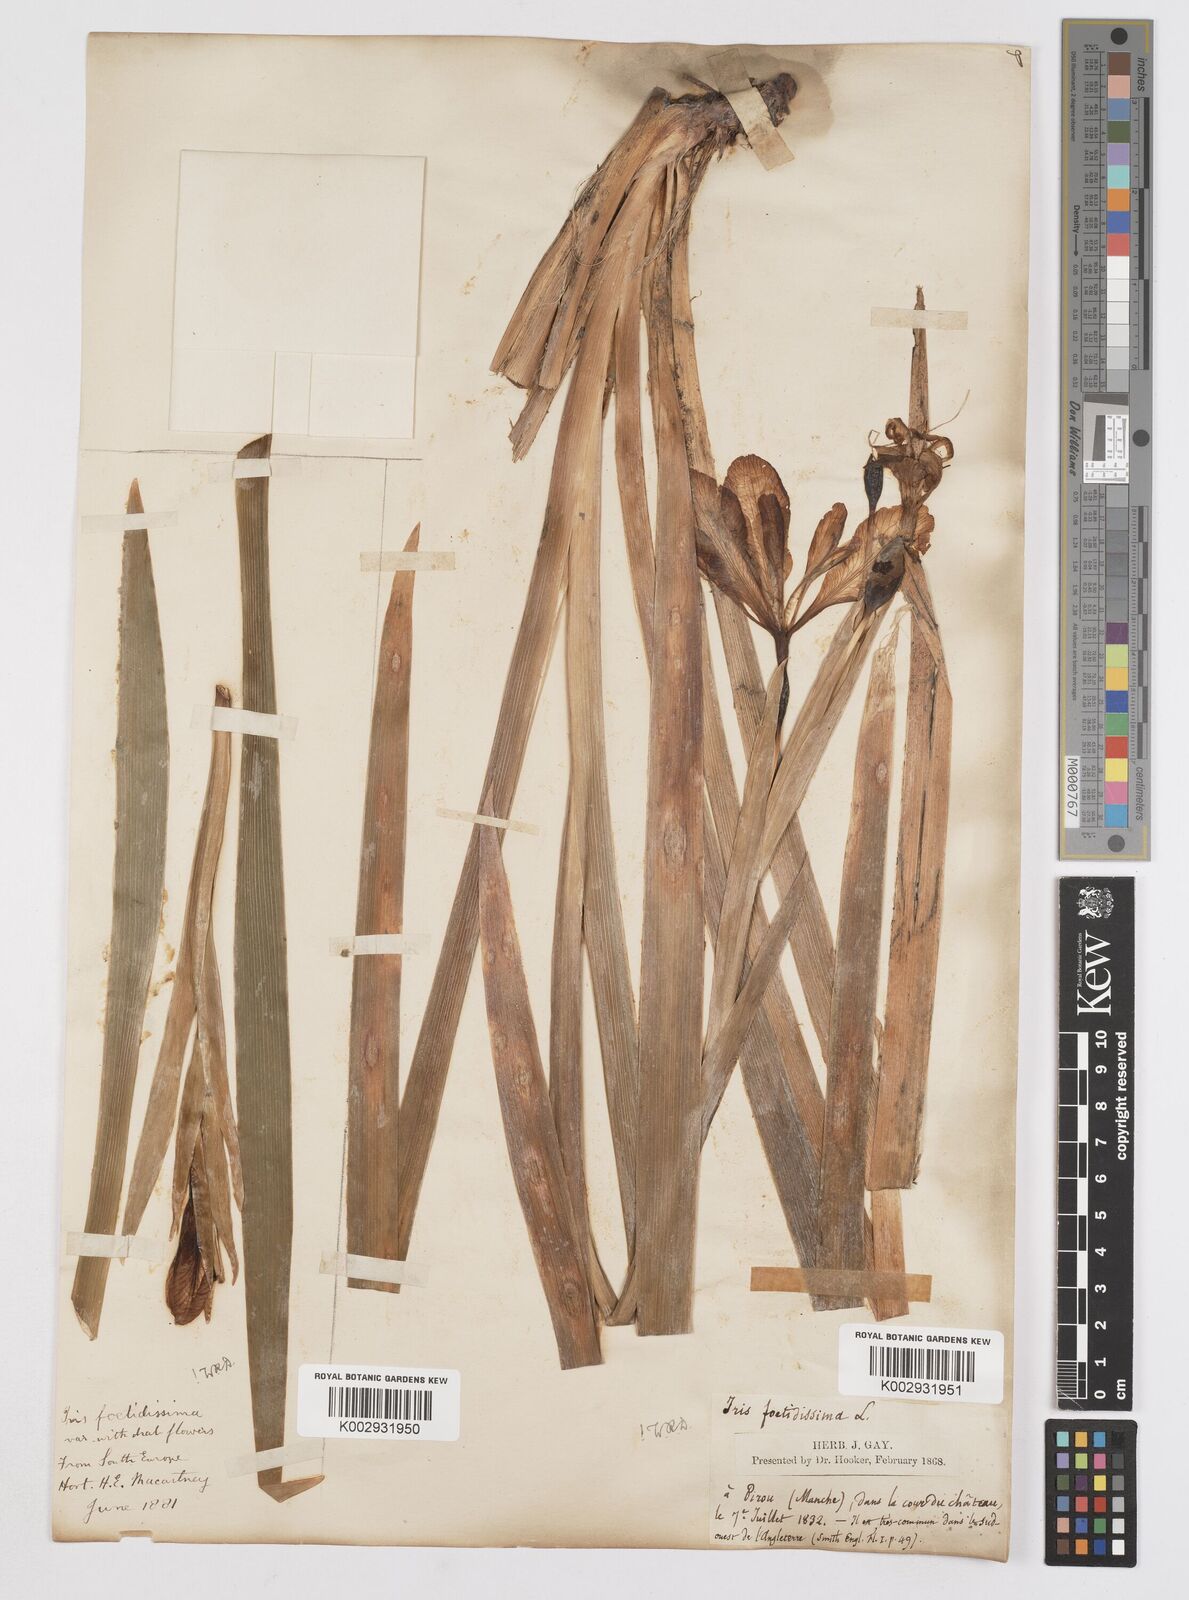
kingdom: Plantae
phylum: Tracheophyta
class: Liliopsida
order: Asparagales
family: Iridaceae
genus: Iris
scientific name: Iris foetidissima
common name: Stinking iris
